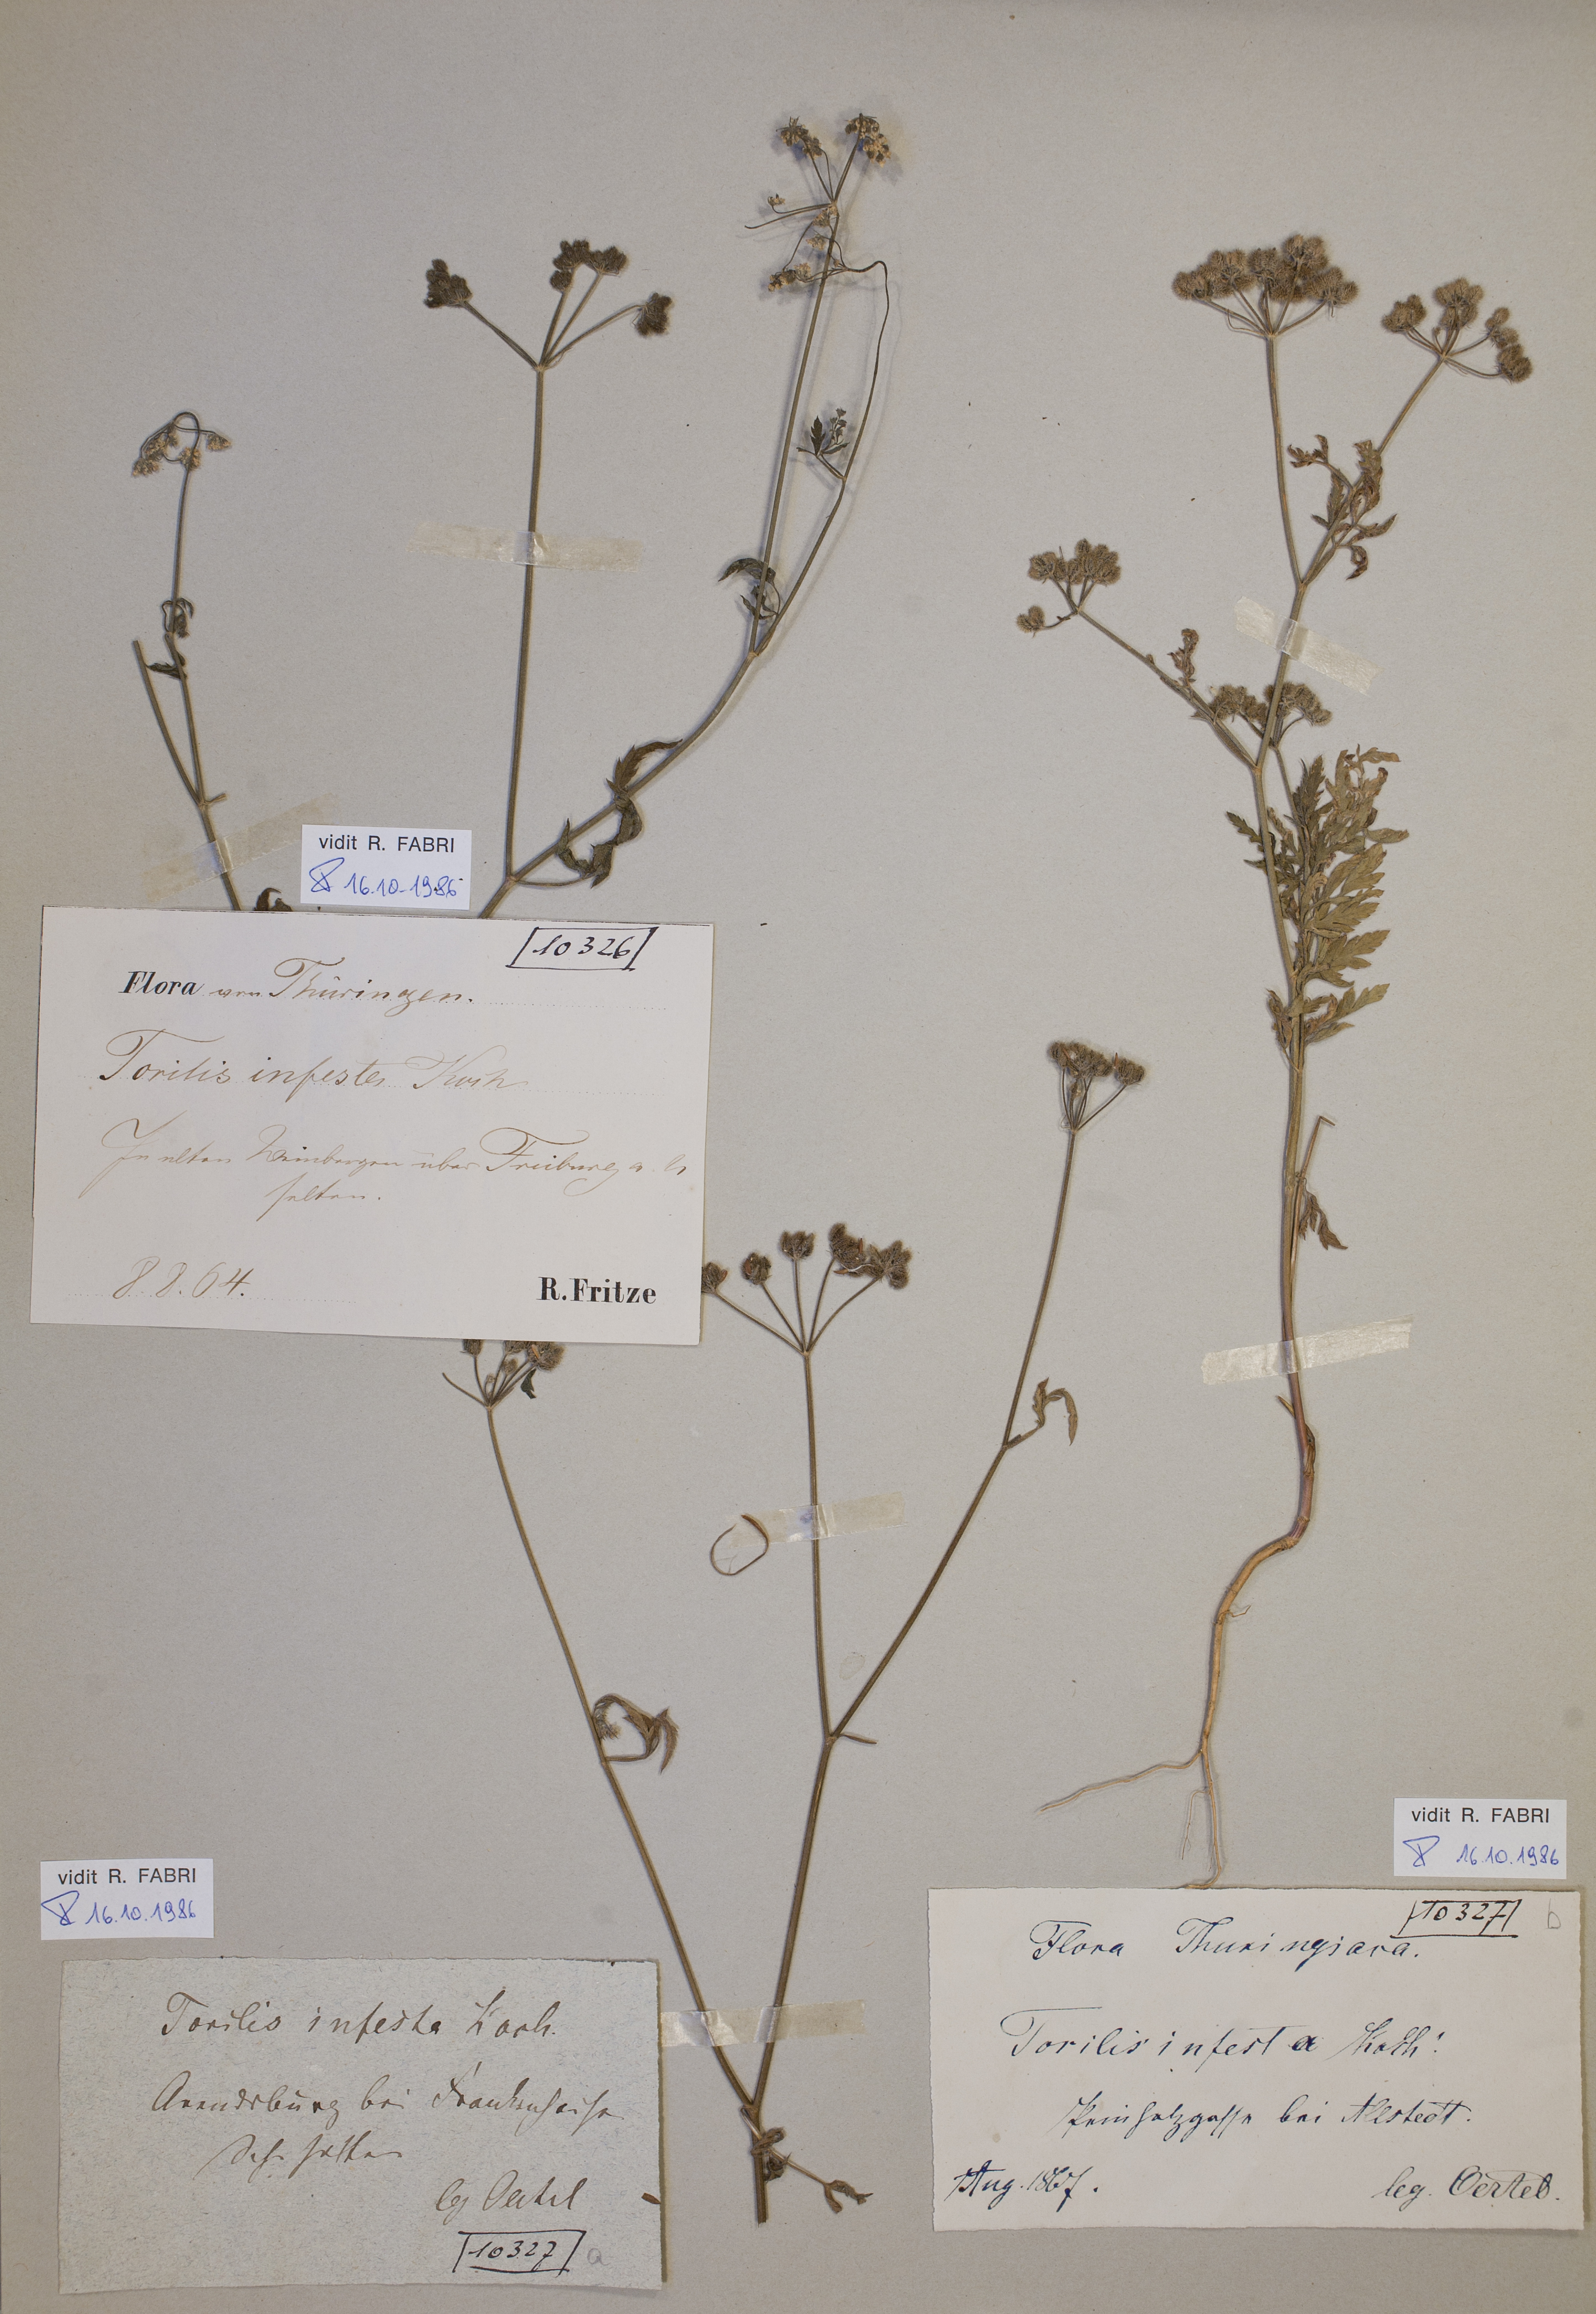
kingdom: Plantae
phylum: Tracheophyta
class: Magnoliopsida
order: Apiales
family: Apiaceae
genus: Torilis
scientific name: Torilis arvensis
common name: Spreading hedge-parsley
